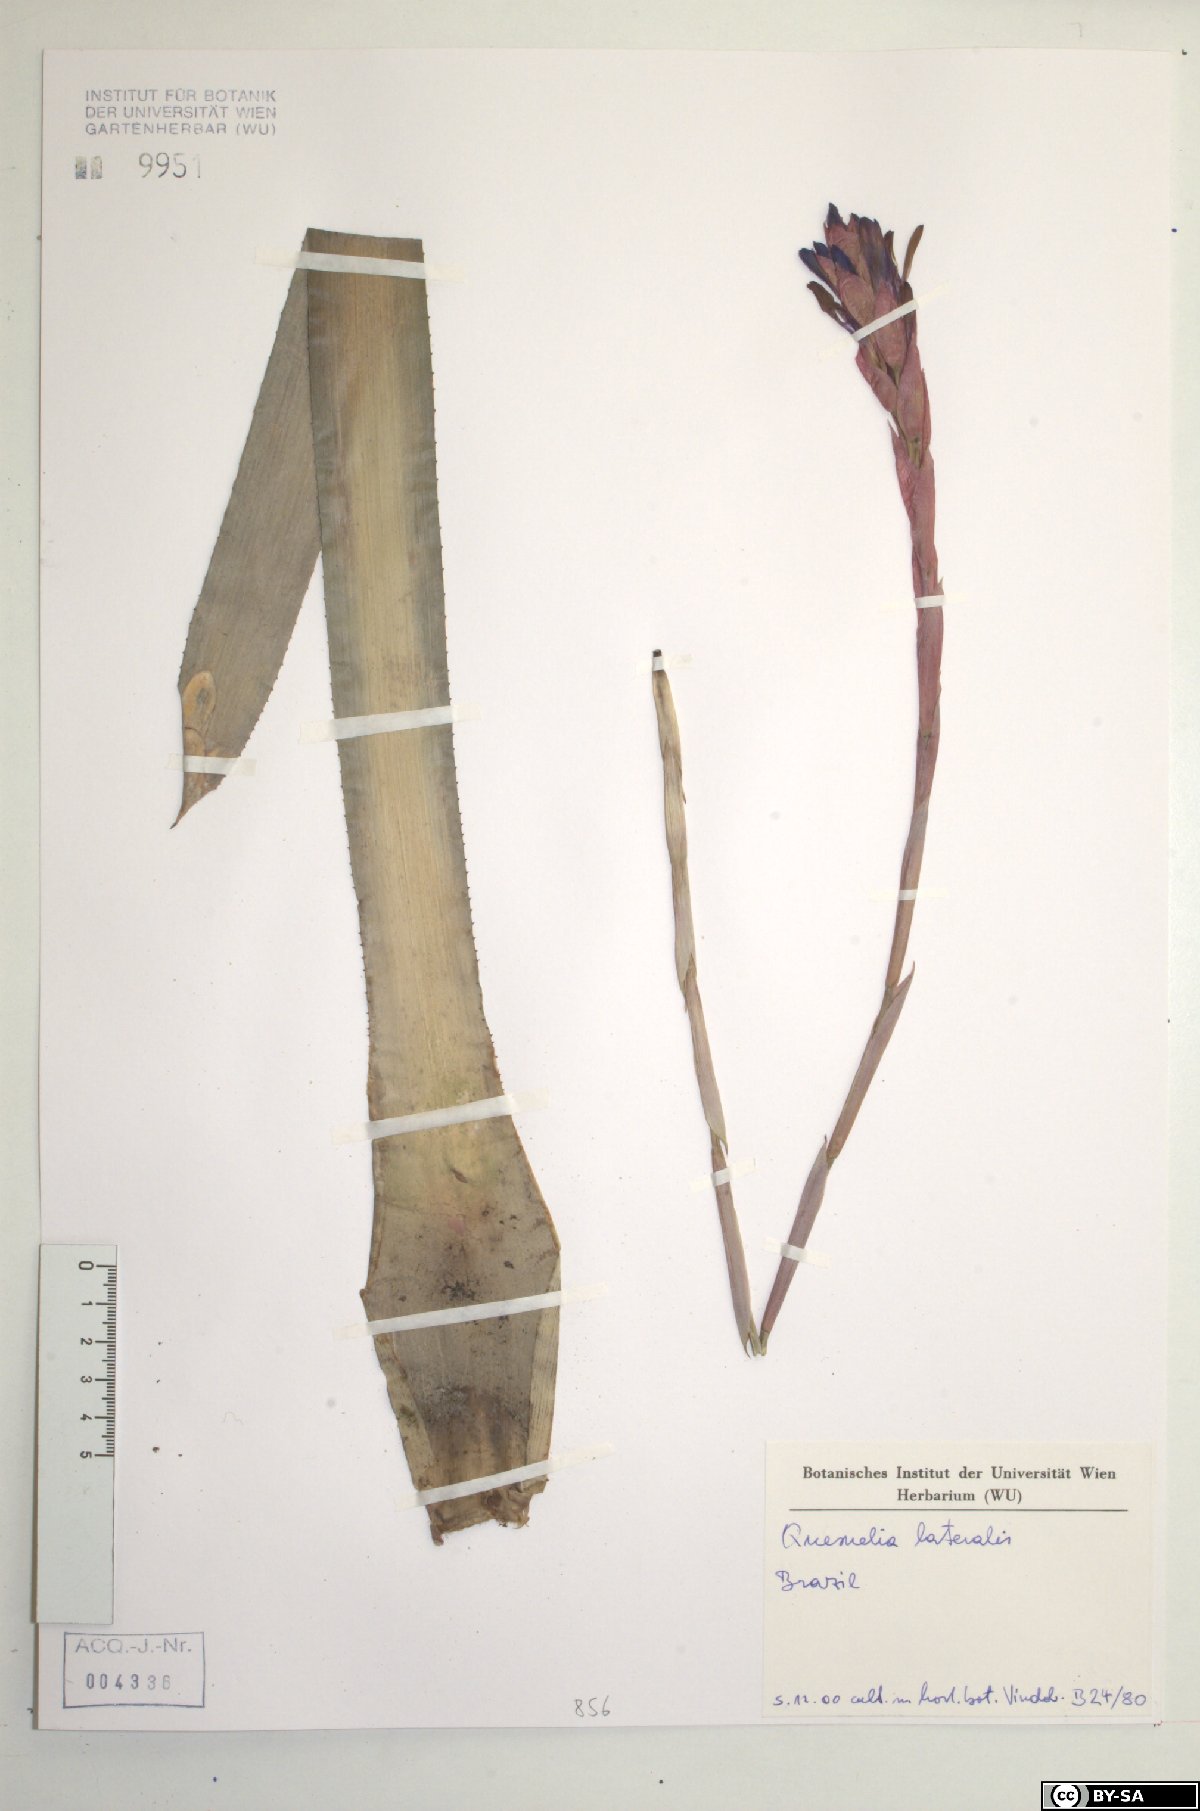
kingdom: Plantae
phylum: Tracheophyta
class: Liliopsida
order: Poales
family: Bromeliaceae
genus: Quesnelia
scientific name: Quesnelia lateralis
